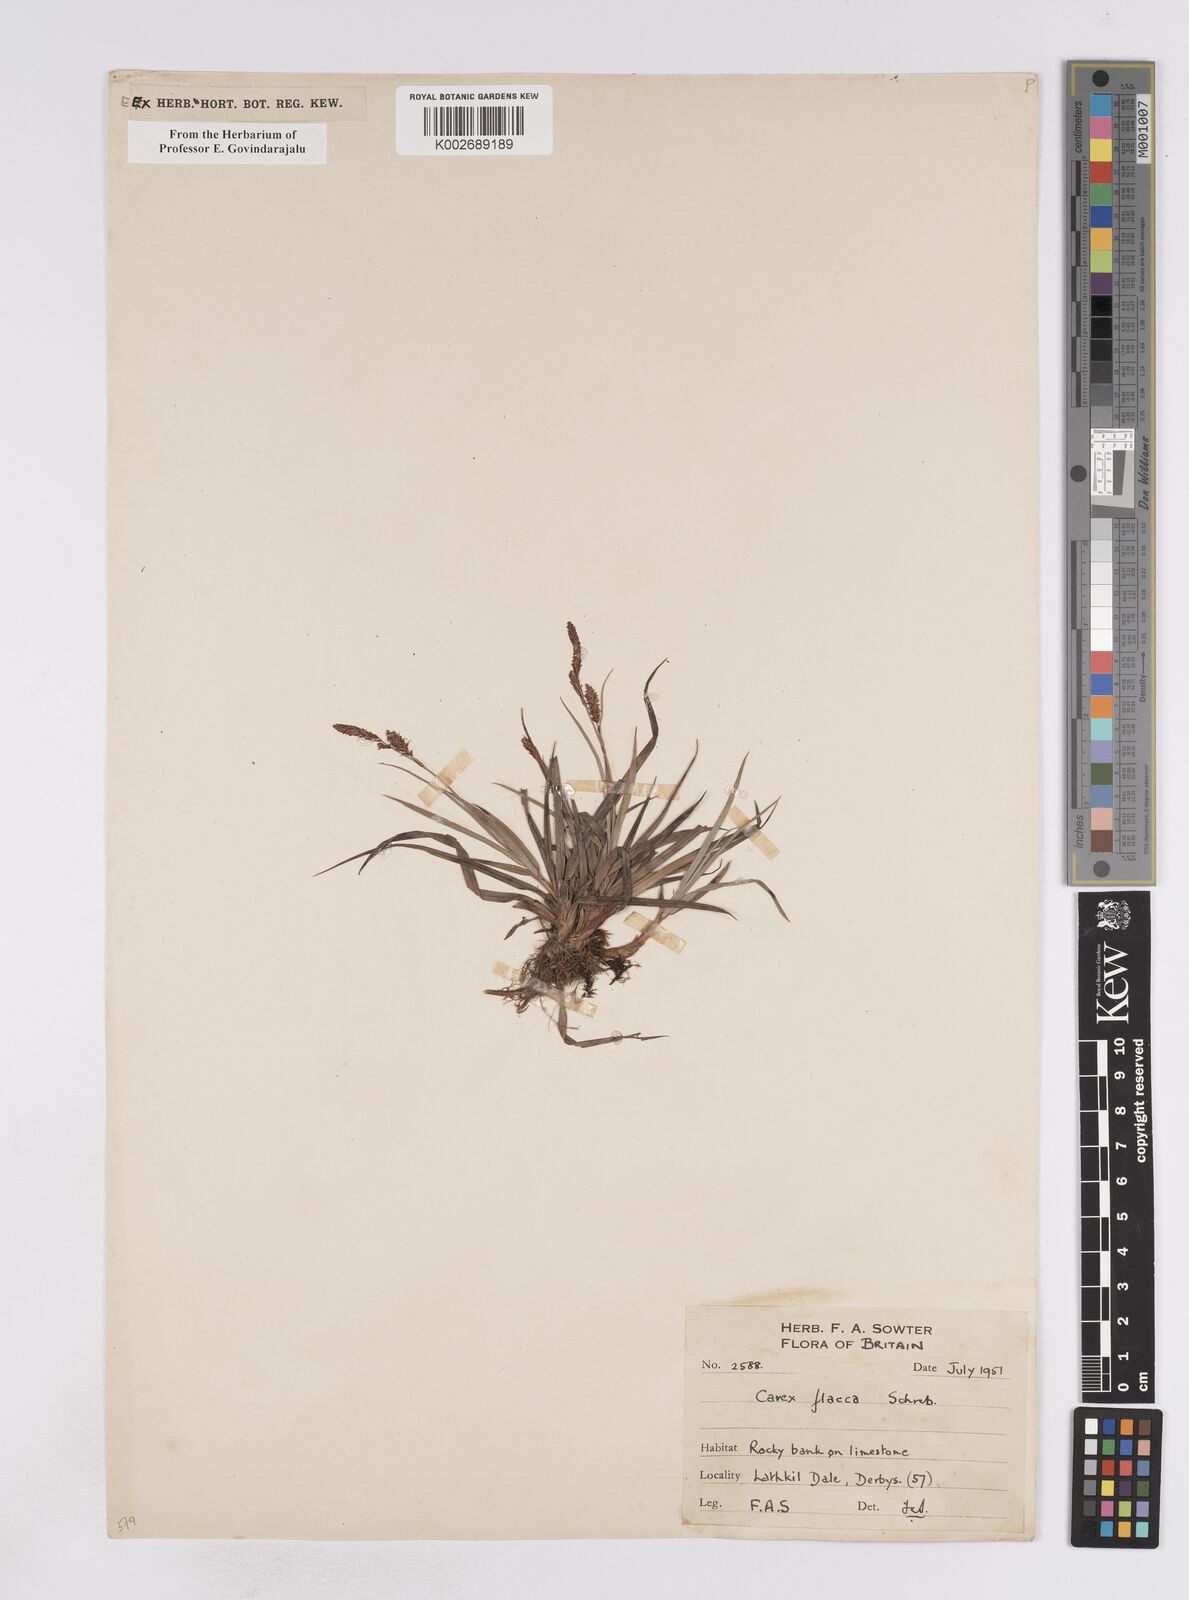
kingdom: Plantae
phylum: Tracheophyta
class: Liliopsida
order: Poales
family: Cyperaceae
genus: Carex
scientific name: Carex flacca
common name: Glaucous sedge
